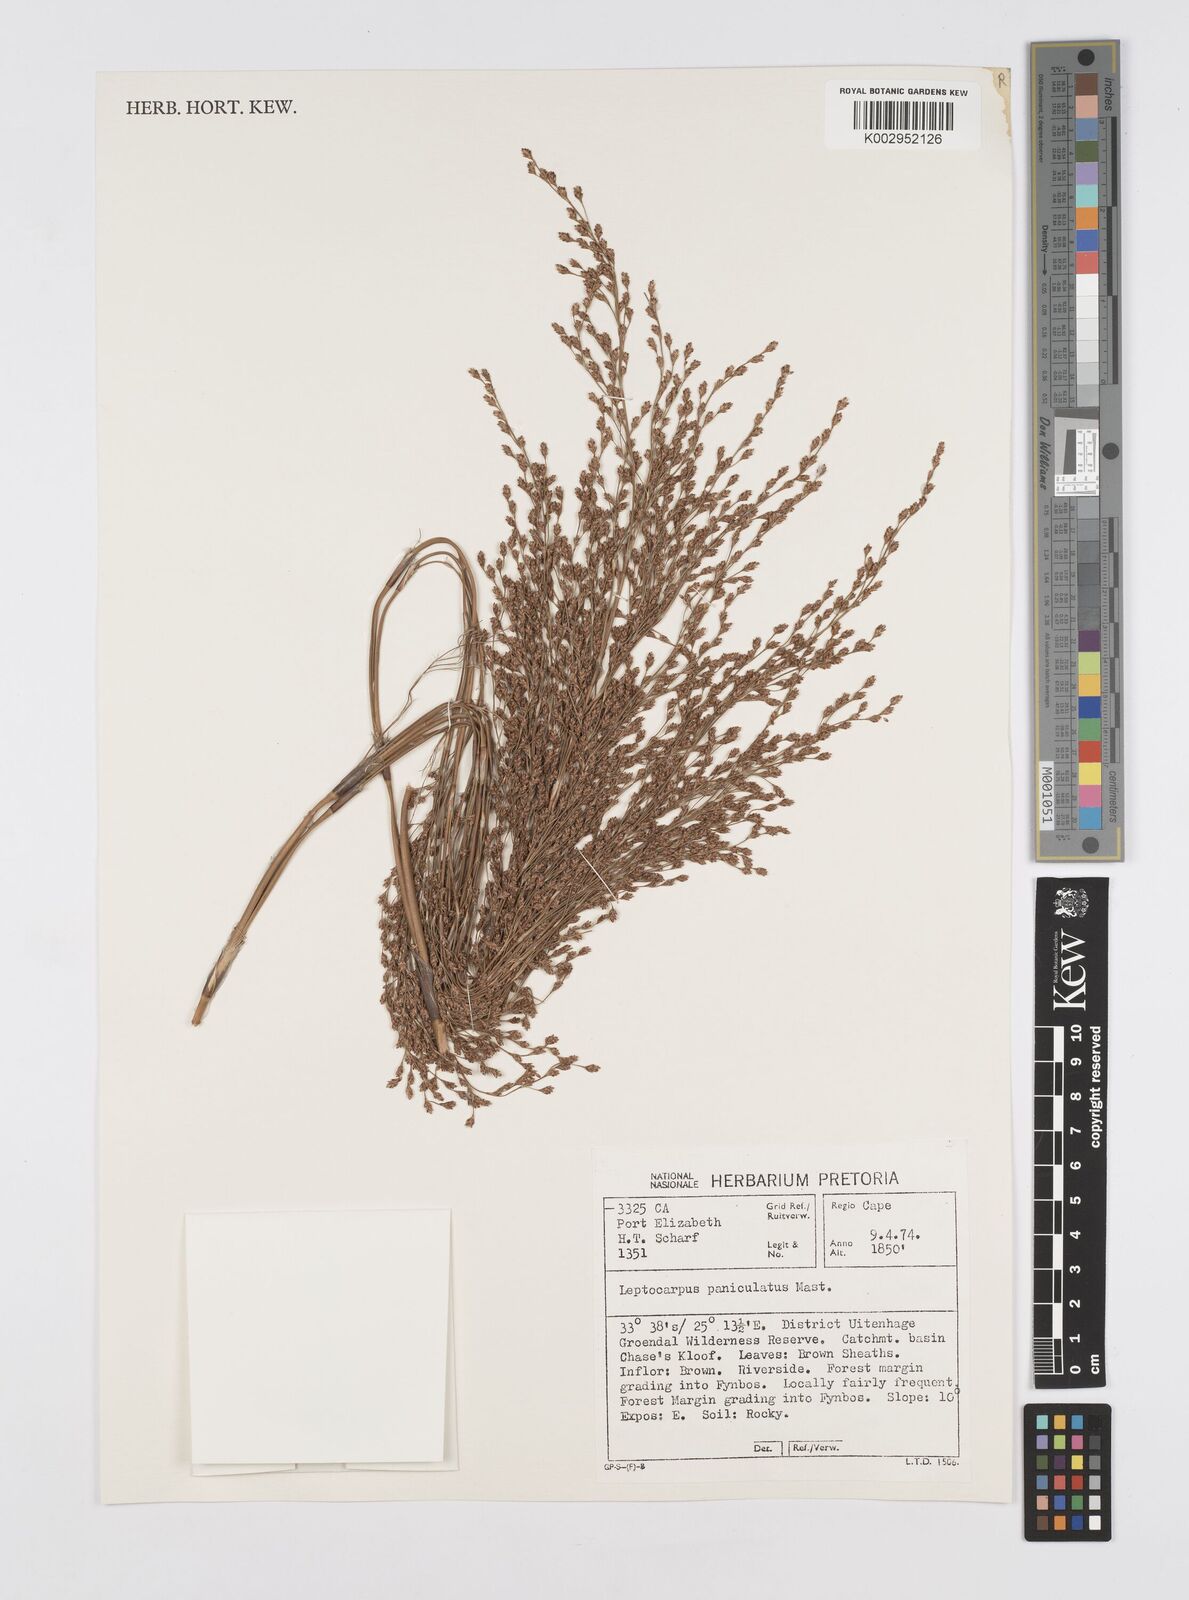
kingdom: Plantae
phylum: Tracheophyta
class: Liliopsida
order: Poales
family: Restionaceae
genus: Restio
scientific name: Restio paniculatus
